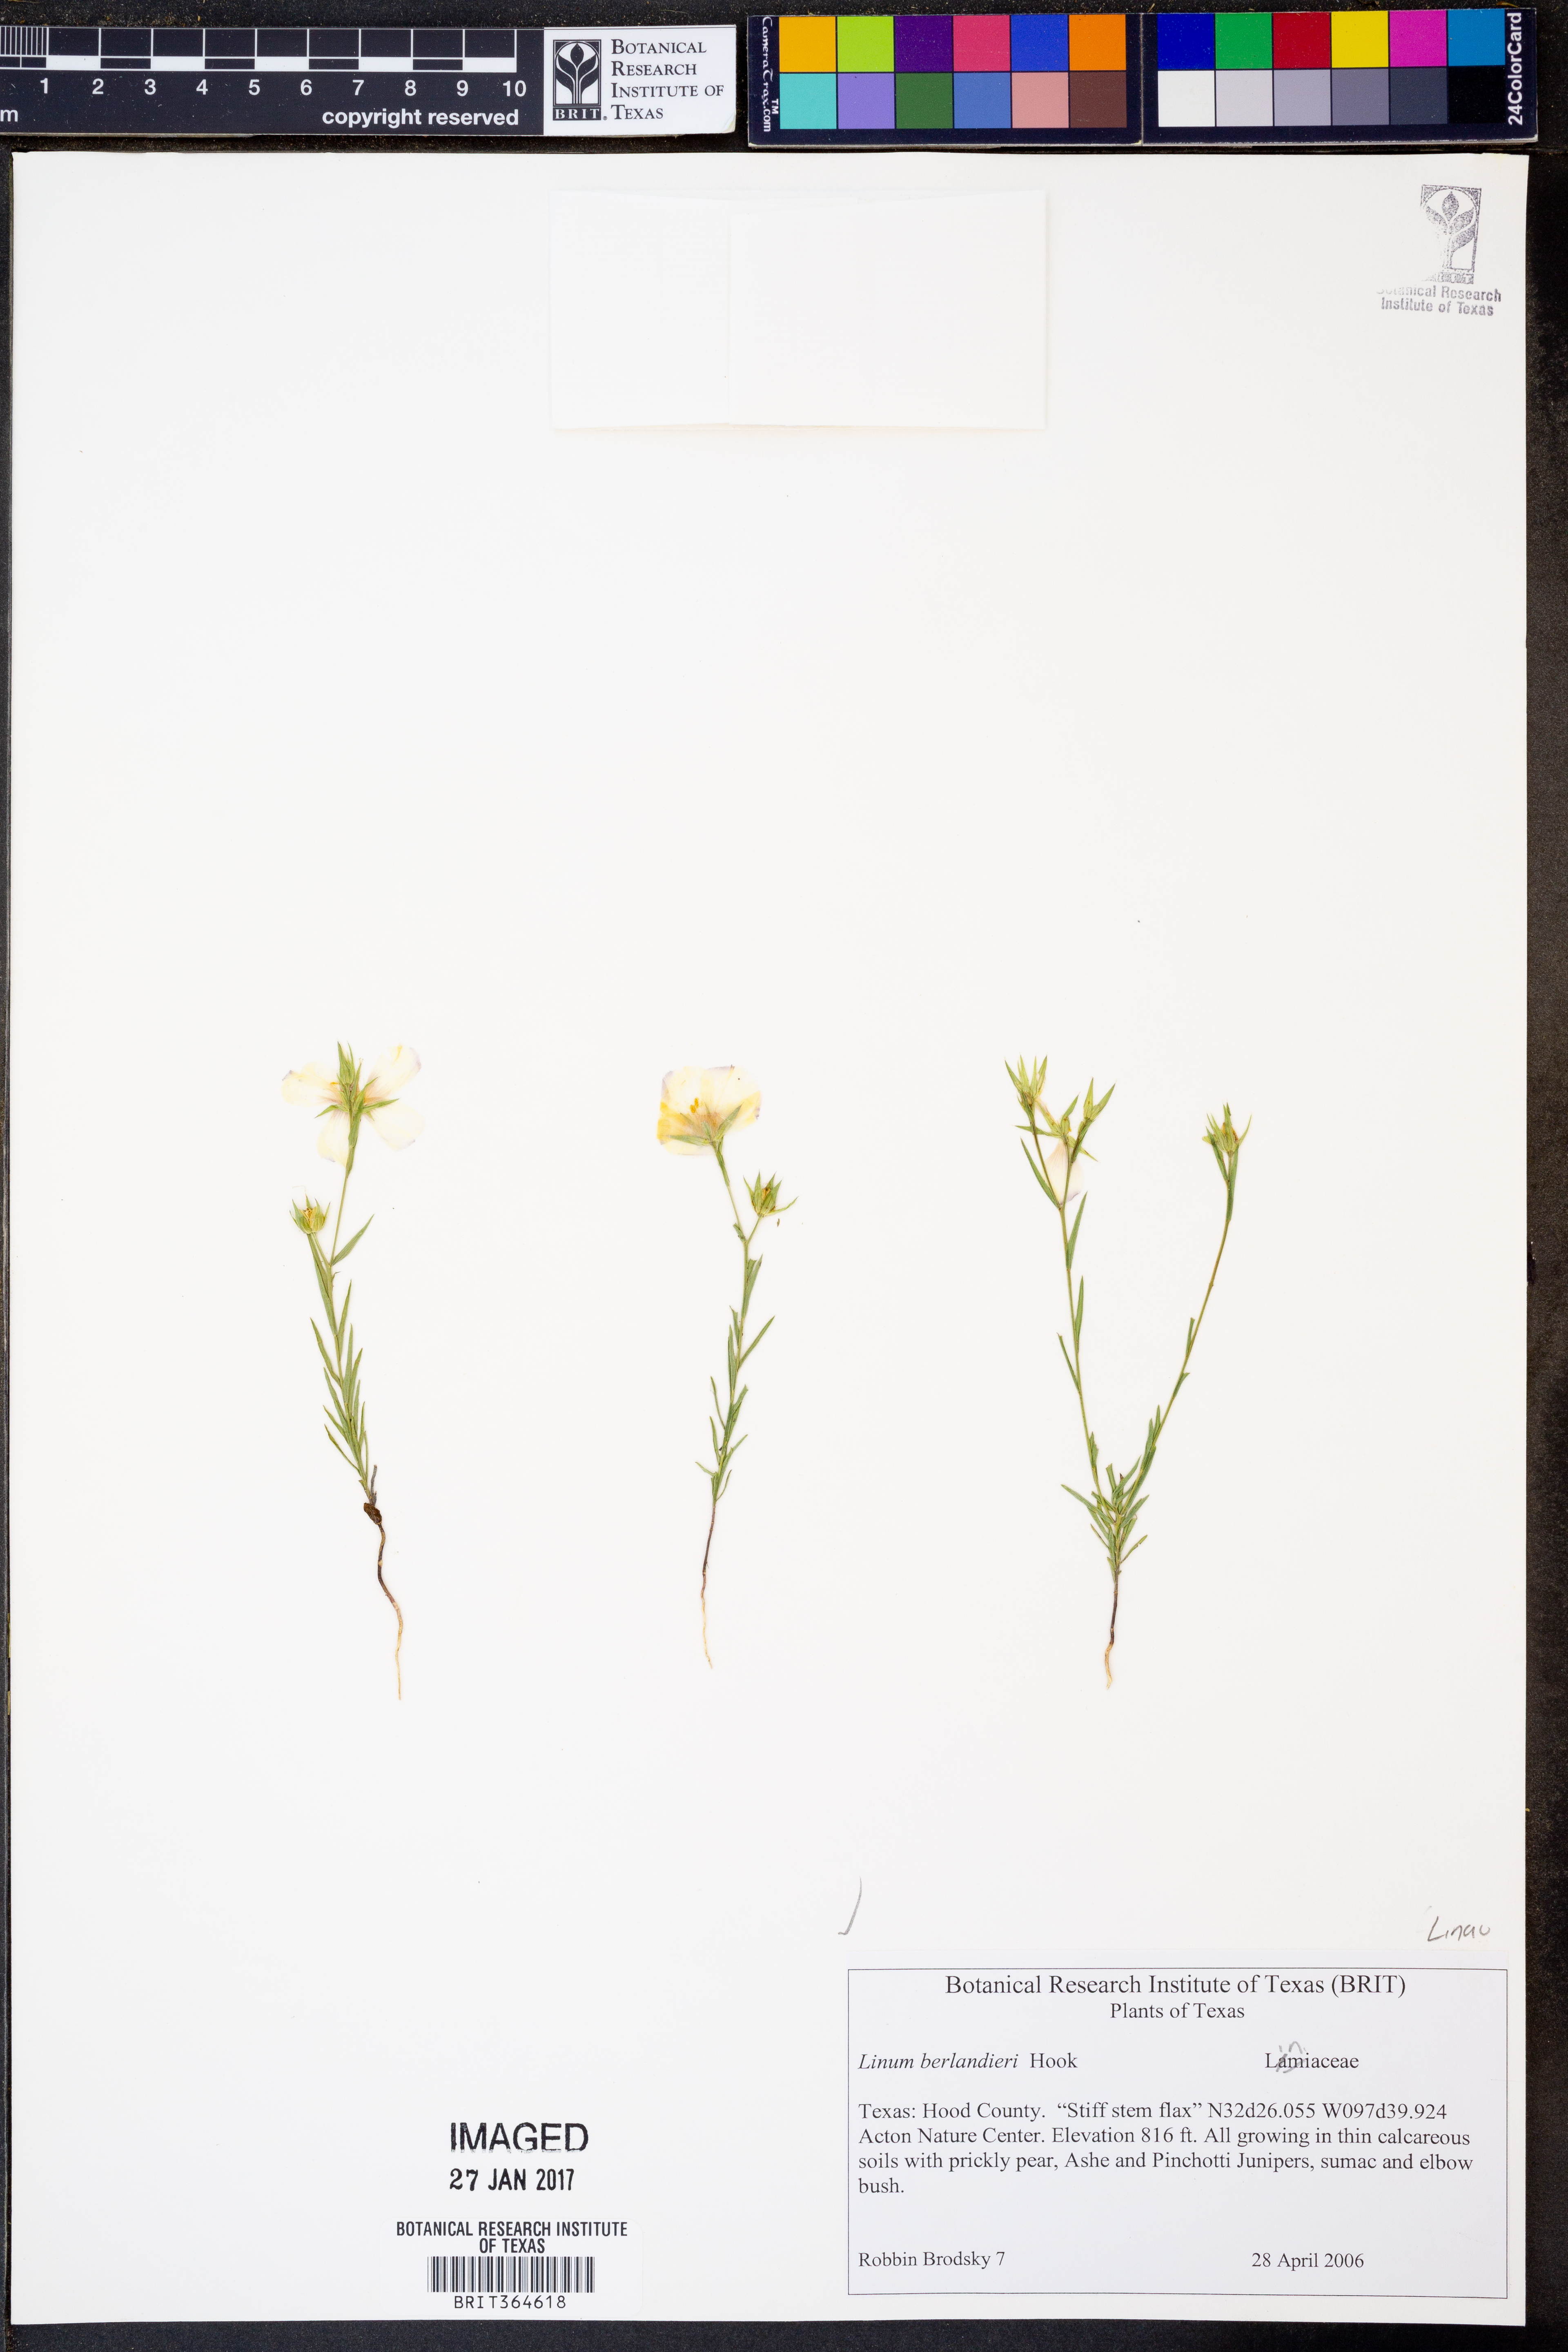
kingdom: Plantae
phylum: Tracheophyta
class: Magnoliopsida
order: Malpighiales
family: Linaceae
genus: Linum
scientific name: Linum berlandieri
